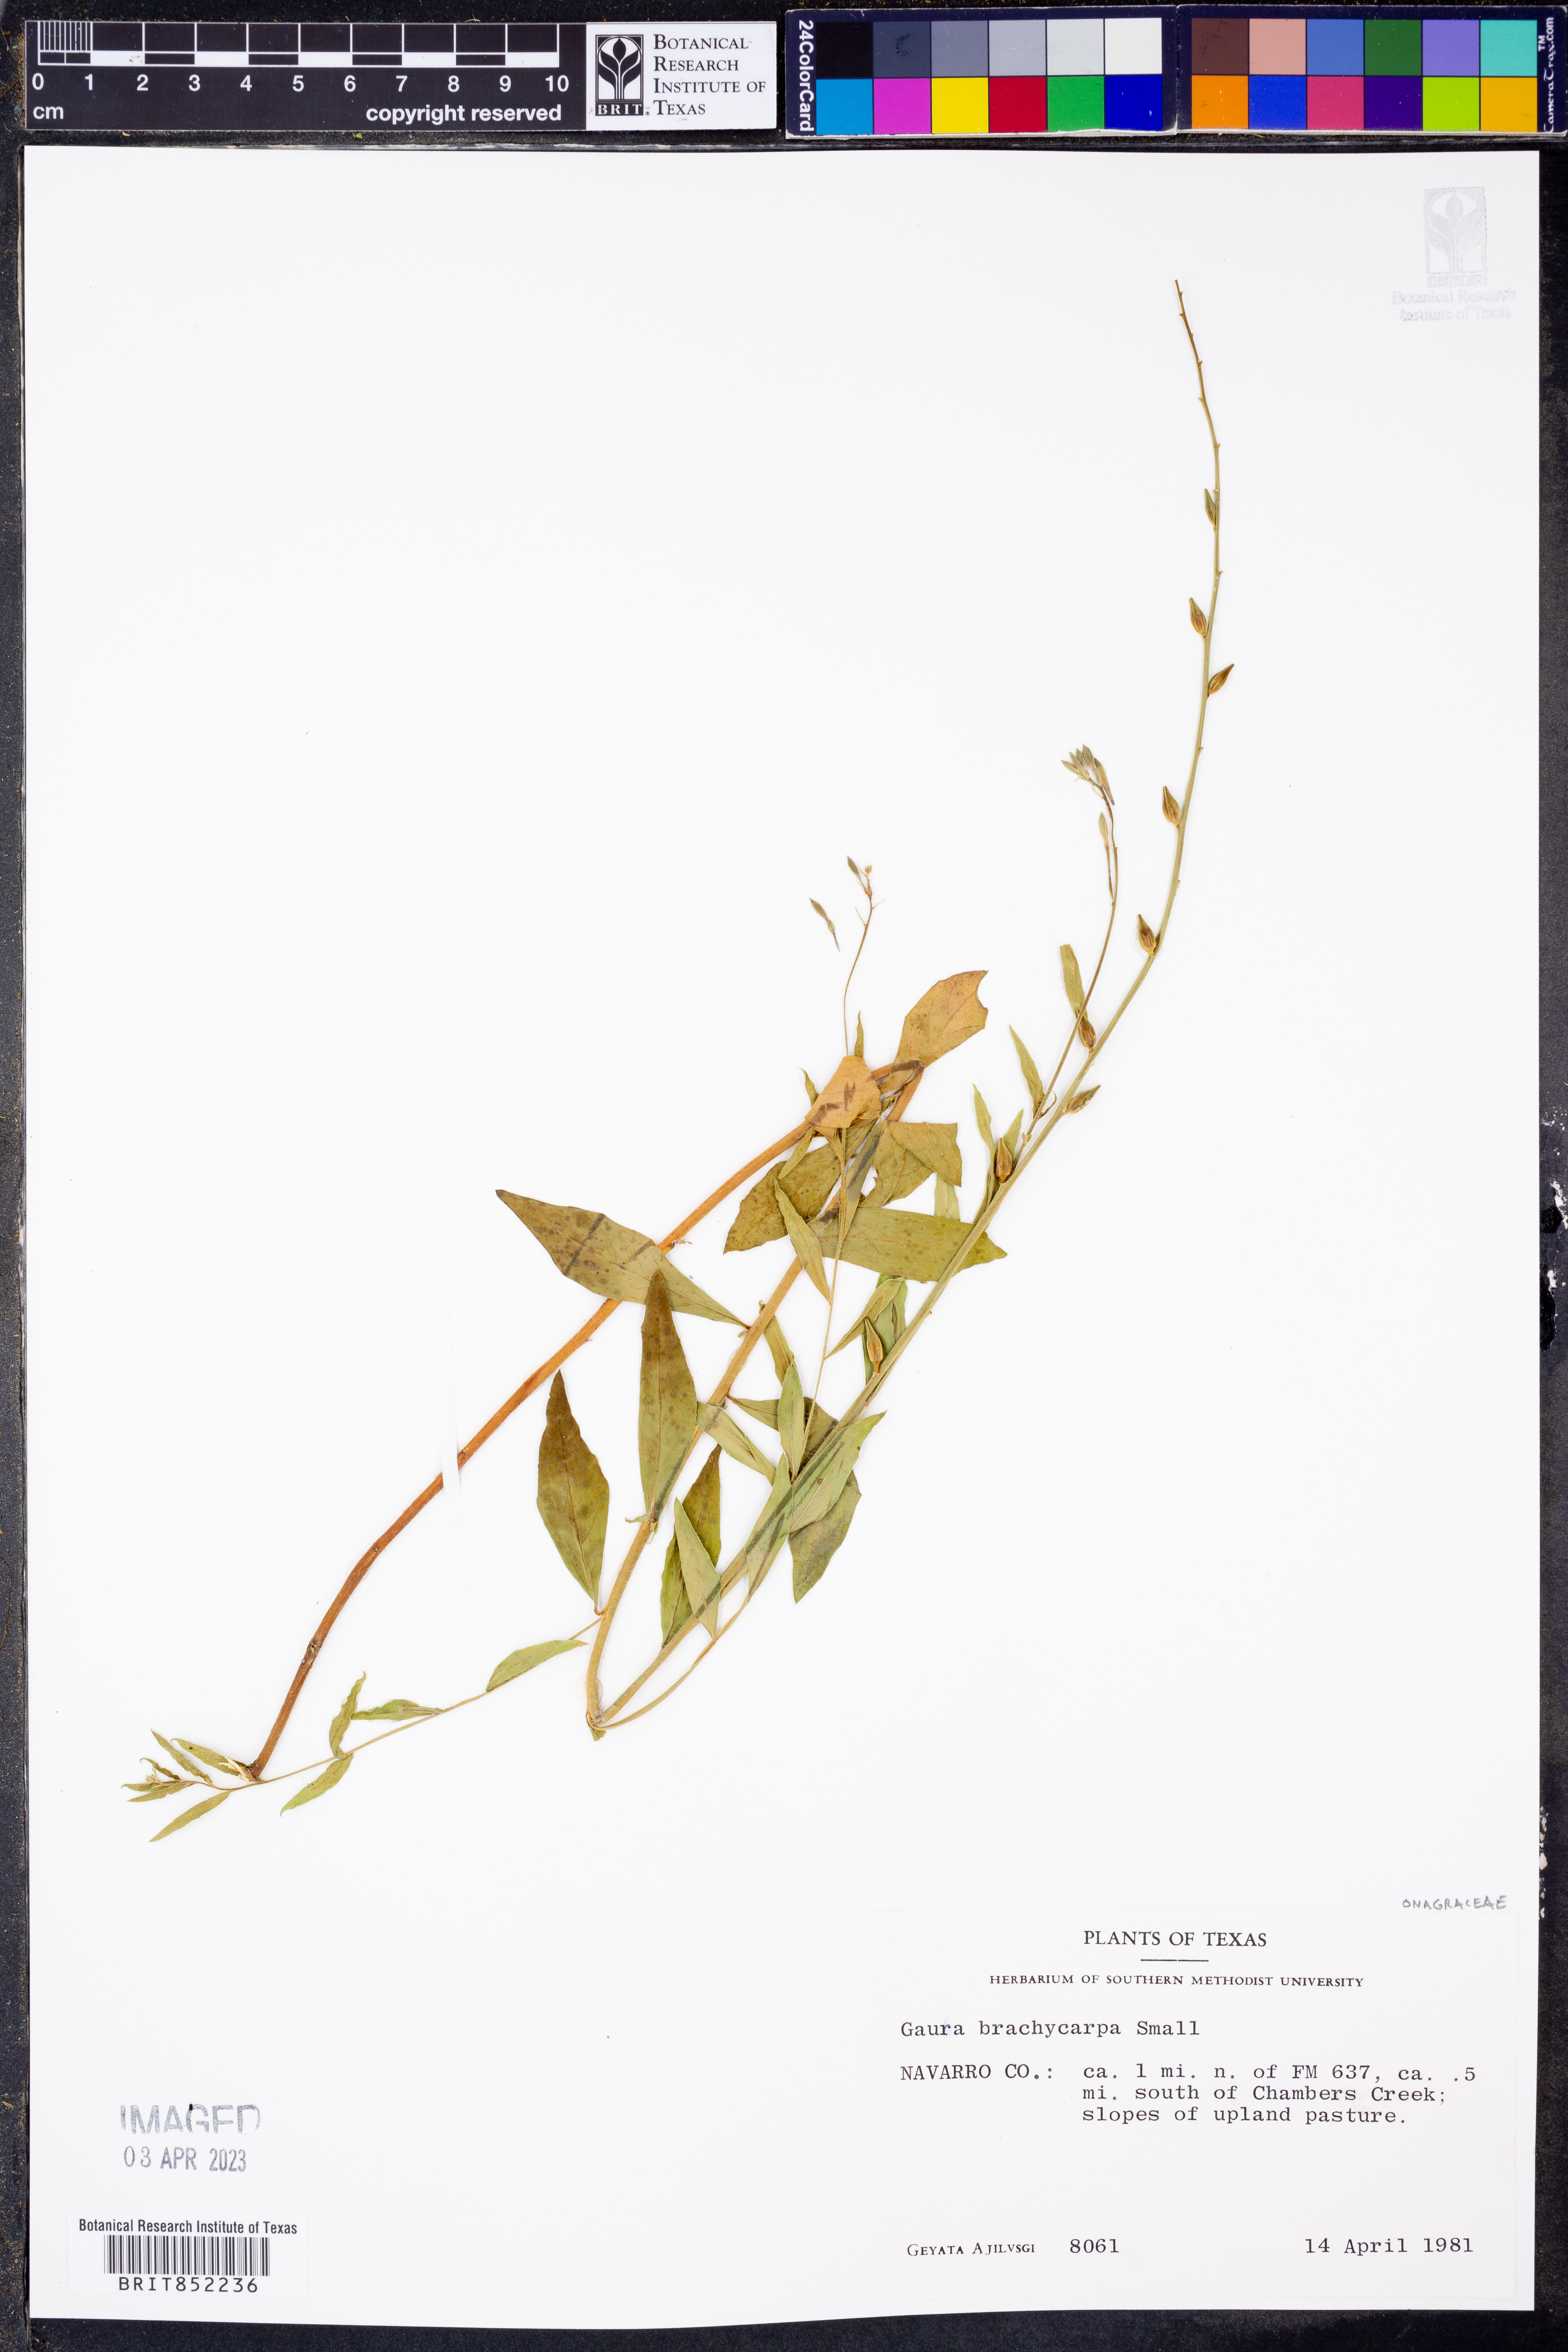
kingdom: Plantae
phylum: Tracheophyta
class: Magnoliopsida
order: Myrtales
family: Onagraceae
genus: Oenothera
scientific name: Oenothera patriciae
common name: Plains beeblossom
